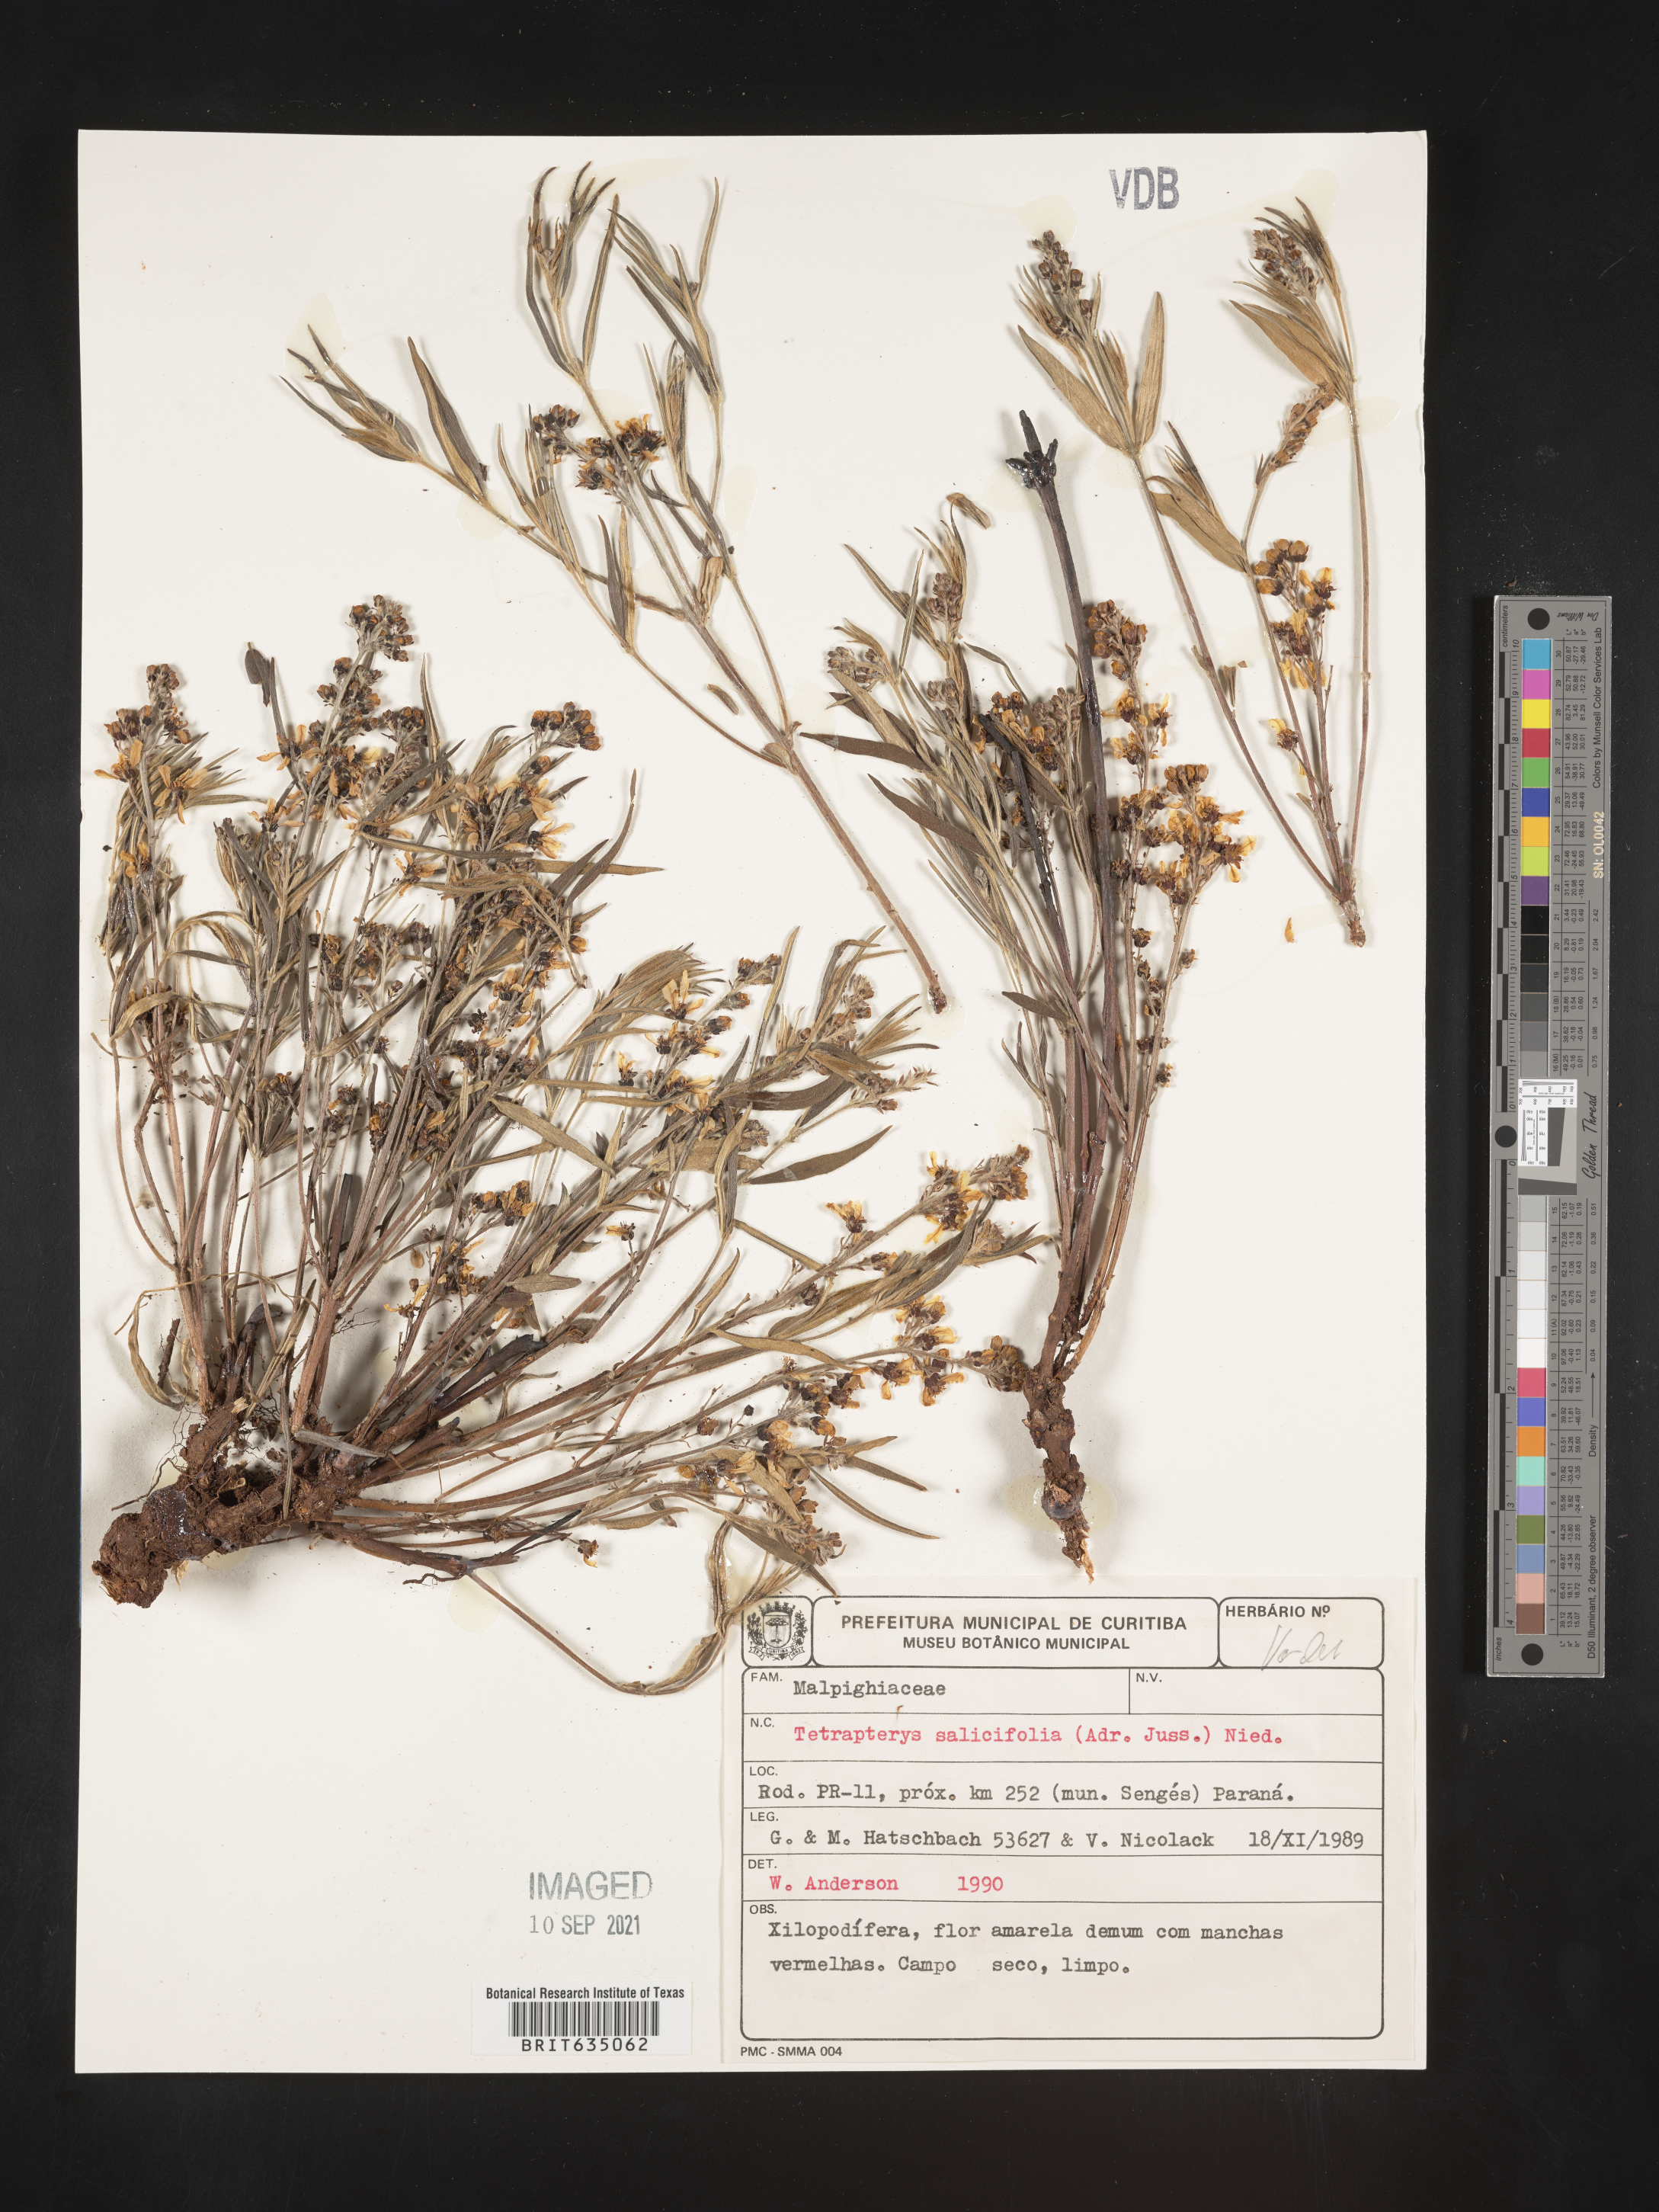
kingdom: Plantae
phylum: Tracheophyta
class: Magnoliopsida
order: Ericales
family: Styracaceae
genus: Tetrapteris
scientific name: Tetrapteris
